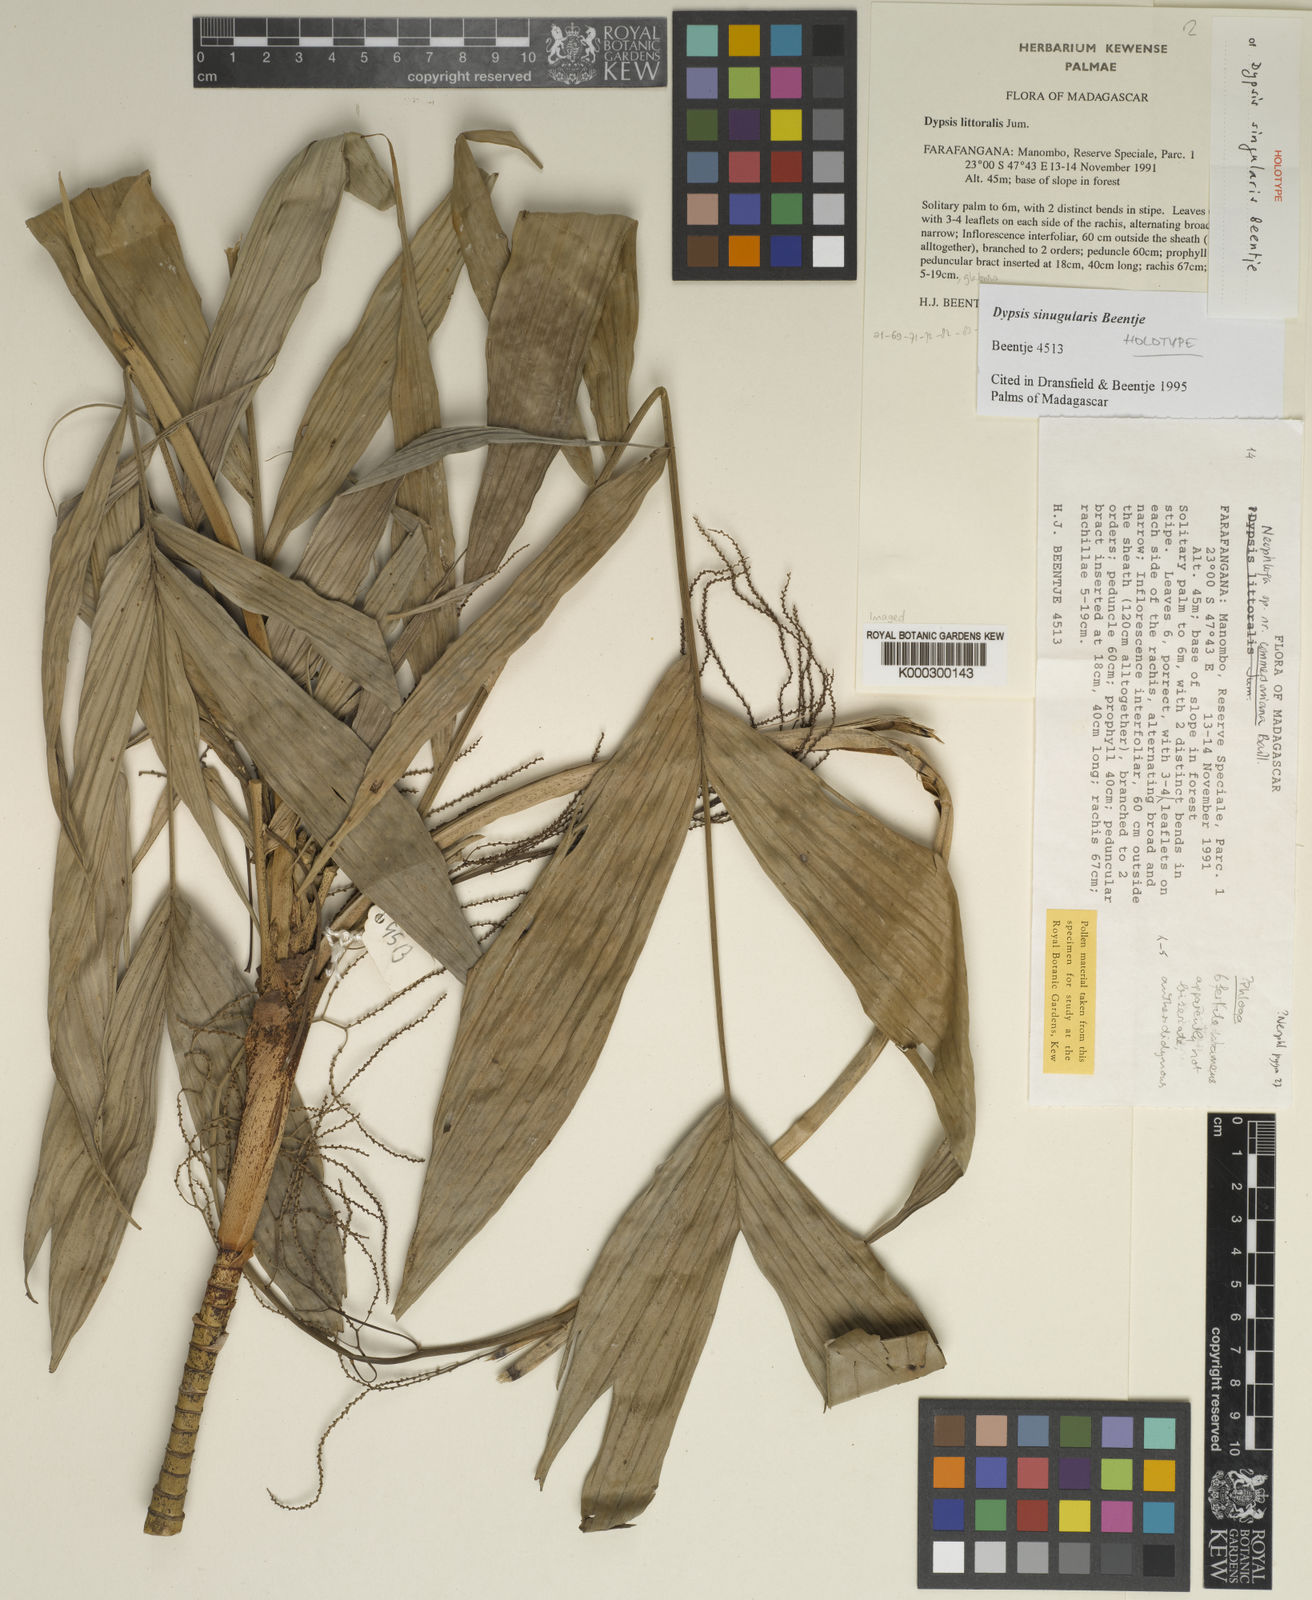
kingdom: Plantae
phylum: Tracheophyta
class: Liliopsida
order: Arecales
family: Arecaceae
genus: Dypsis
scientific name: Dypsis singularis
